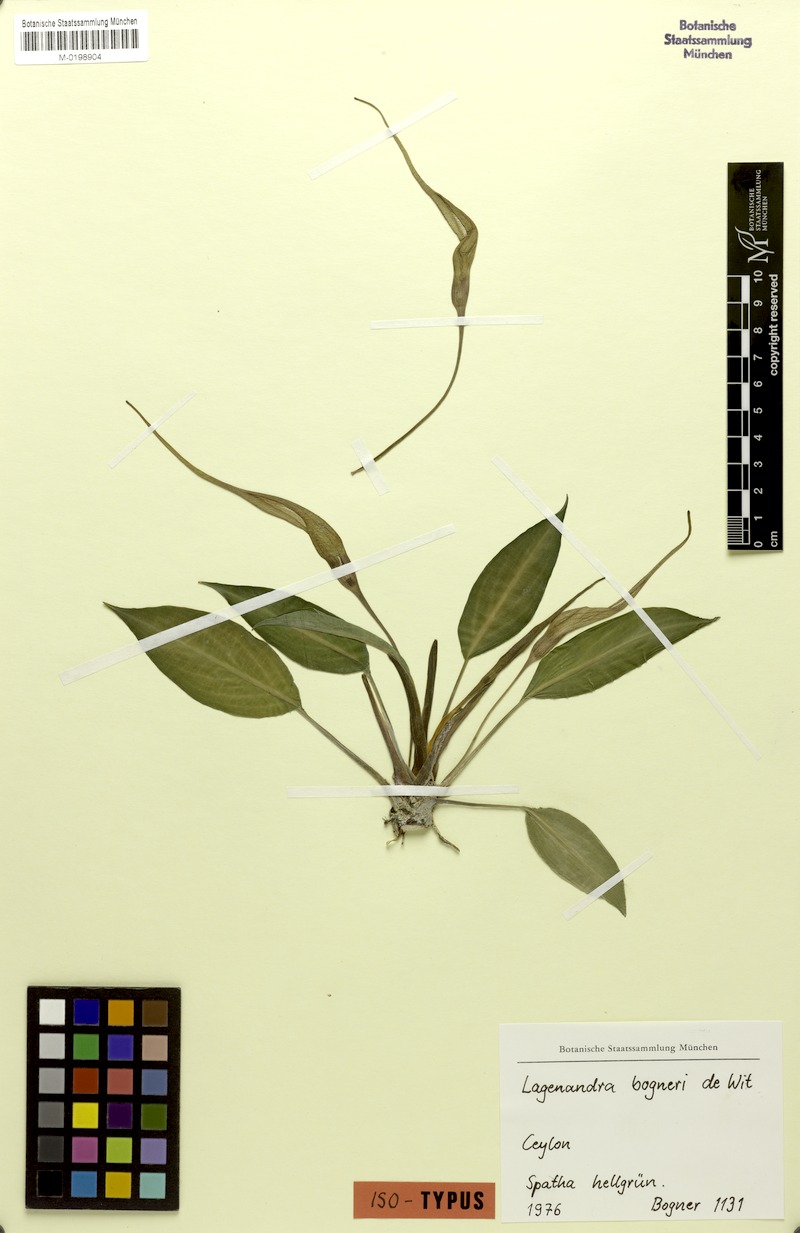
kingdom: Plantae
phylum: Tracheophyta
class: Liliopsida
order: Alismatales
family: Araceae
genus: Lagenandra
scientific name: Lagenandra bogneri
